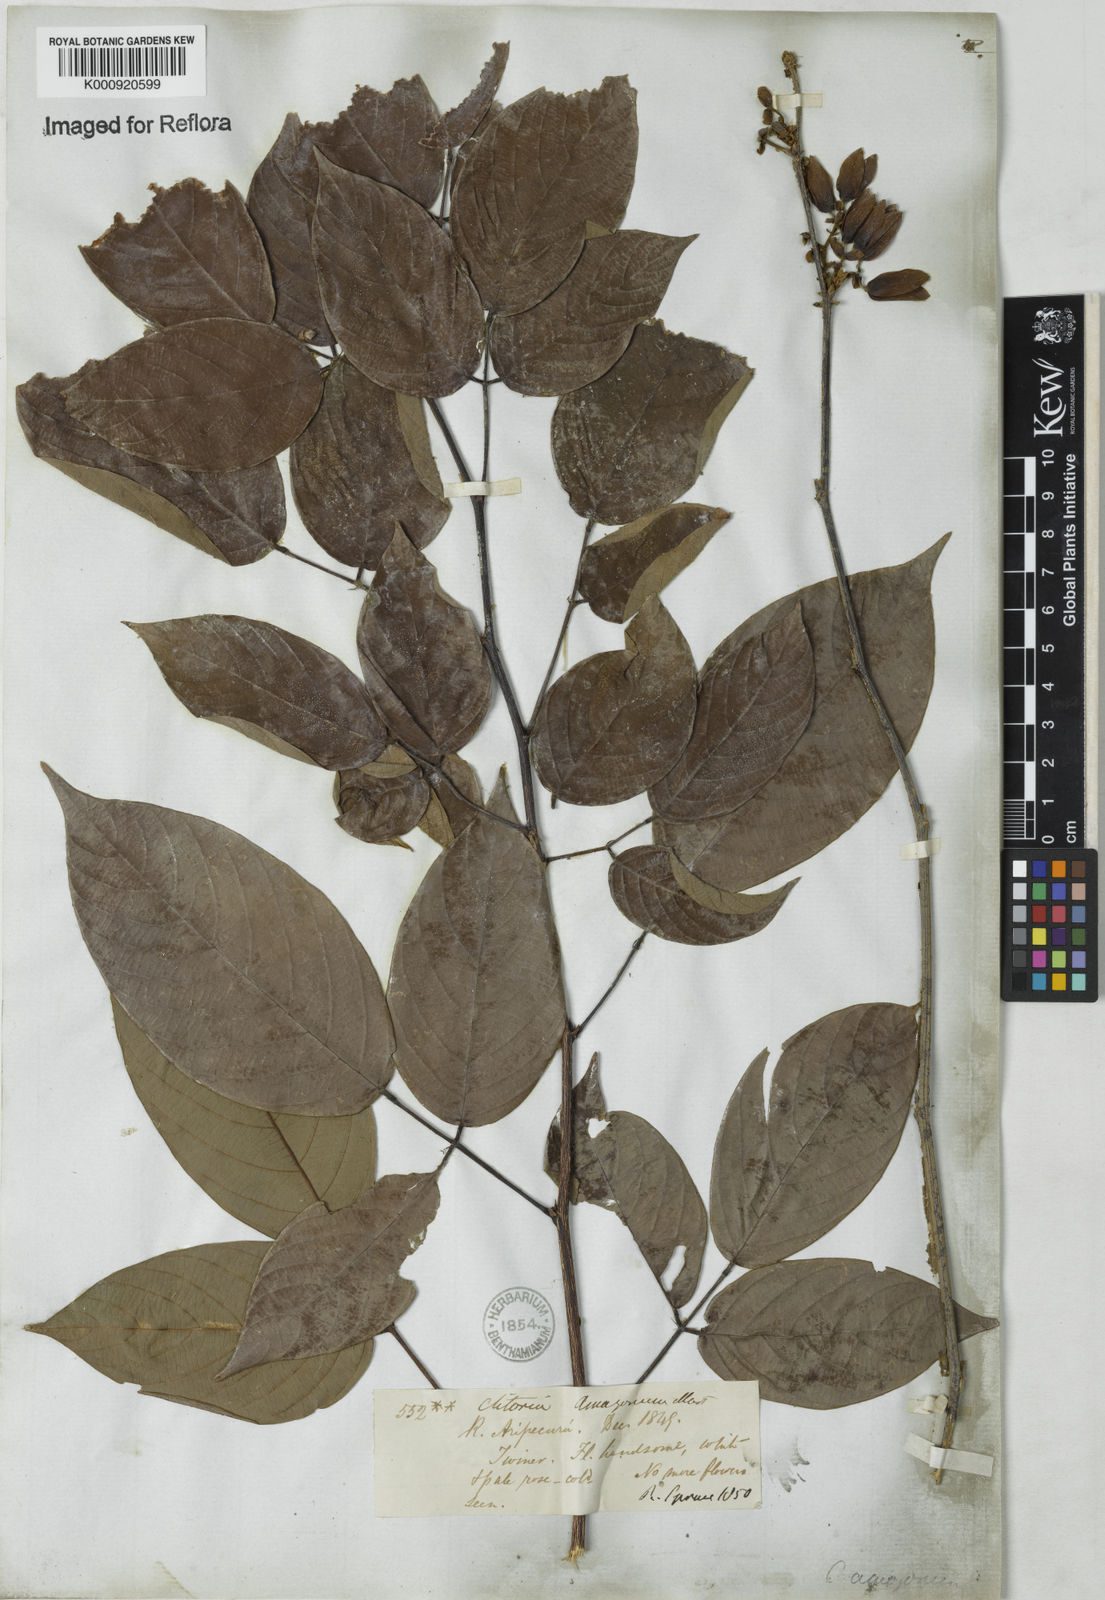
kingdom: Plantae
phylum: Tracheophyta
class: Magnoliopsida
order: Fabales
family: Fabaceae
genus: Clitoria
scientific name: Clitoria amazonum
